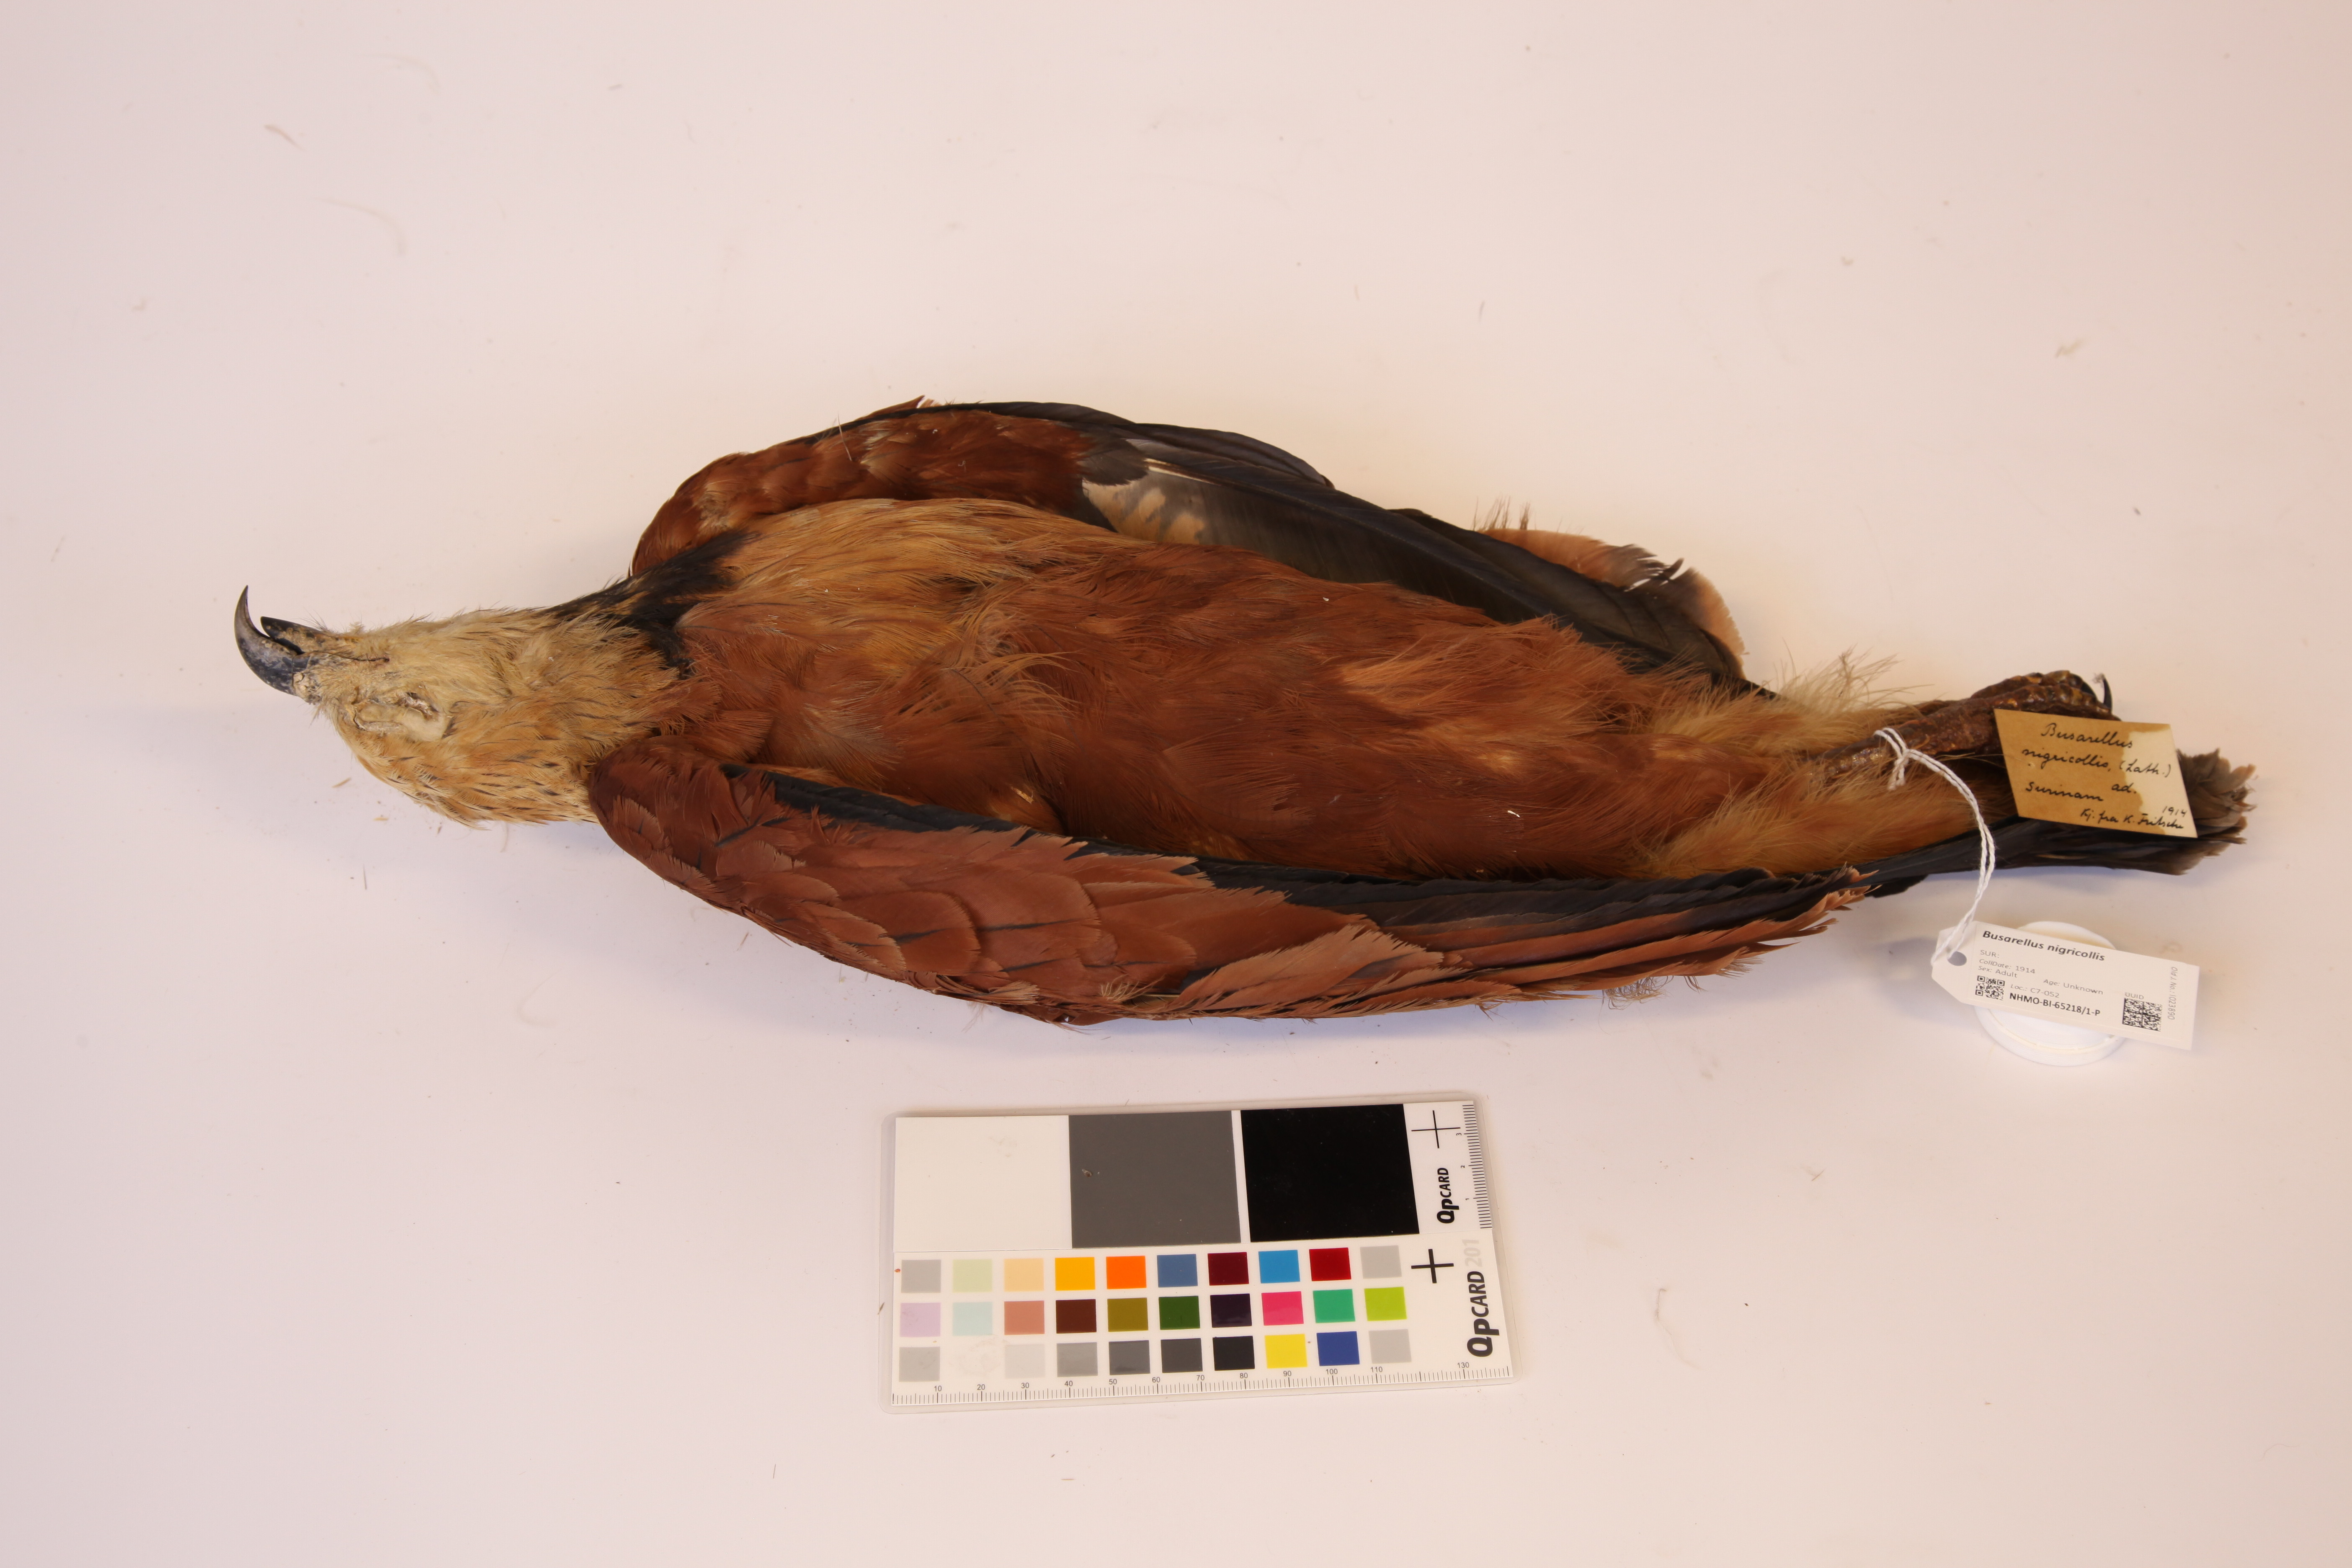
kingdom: Animalia
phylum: Chordata
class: Aves
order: Accipitriformes
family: Accipitridae
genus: Busarellus
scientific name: Busarellus nigricollis
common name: Black-collared hawk
